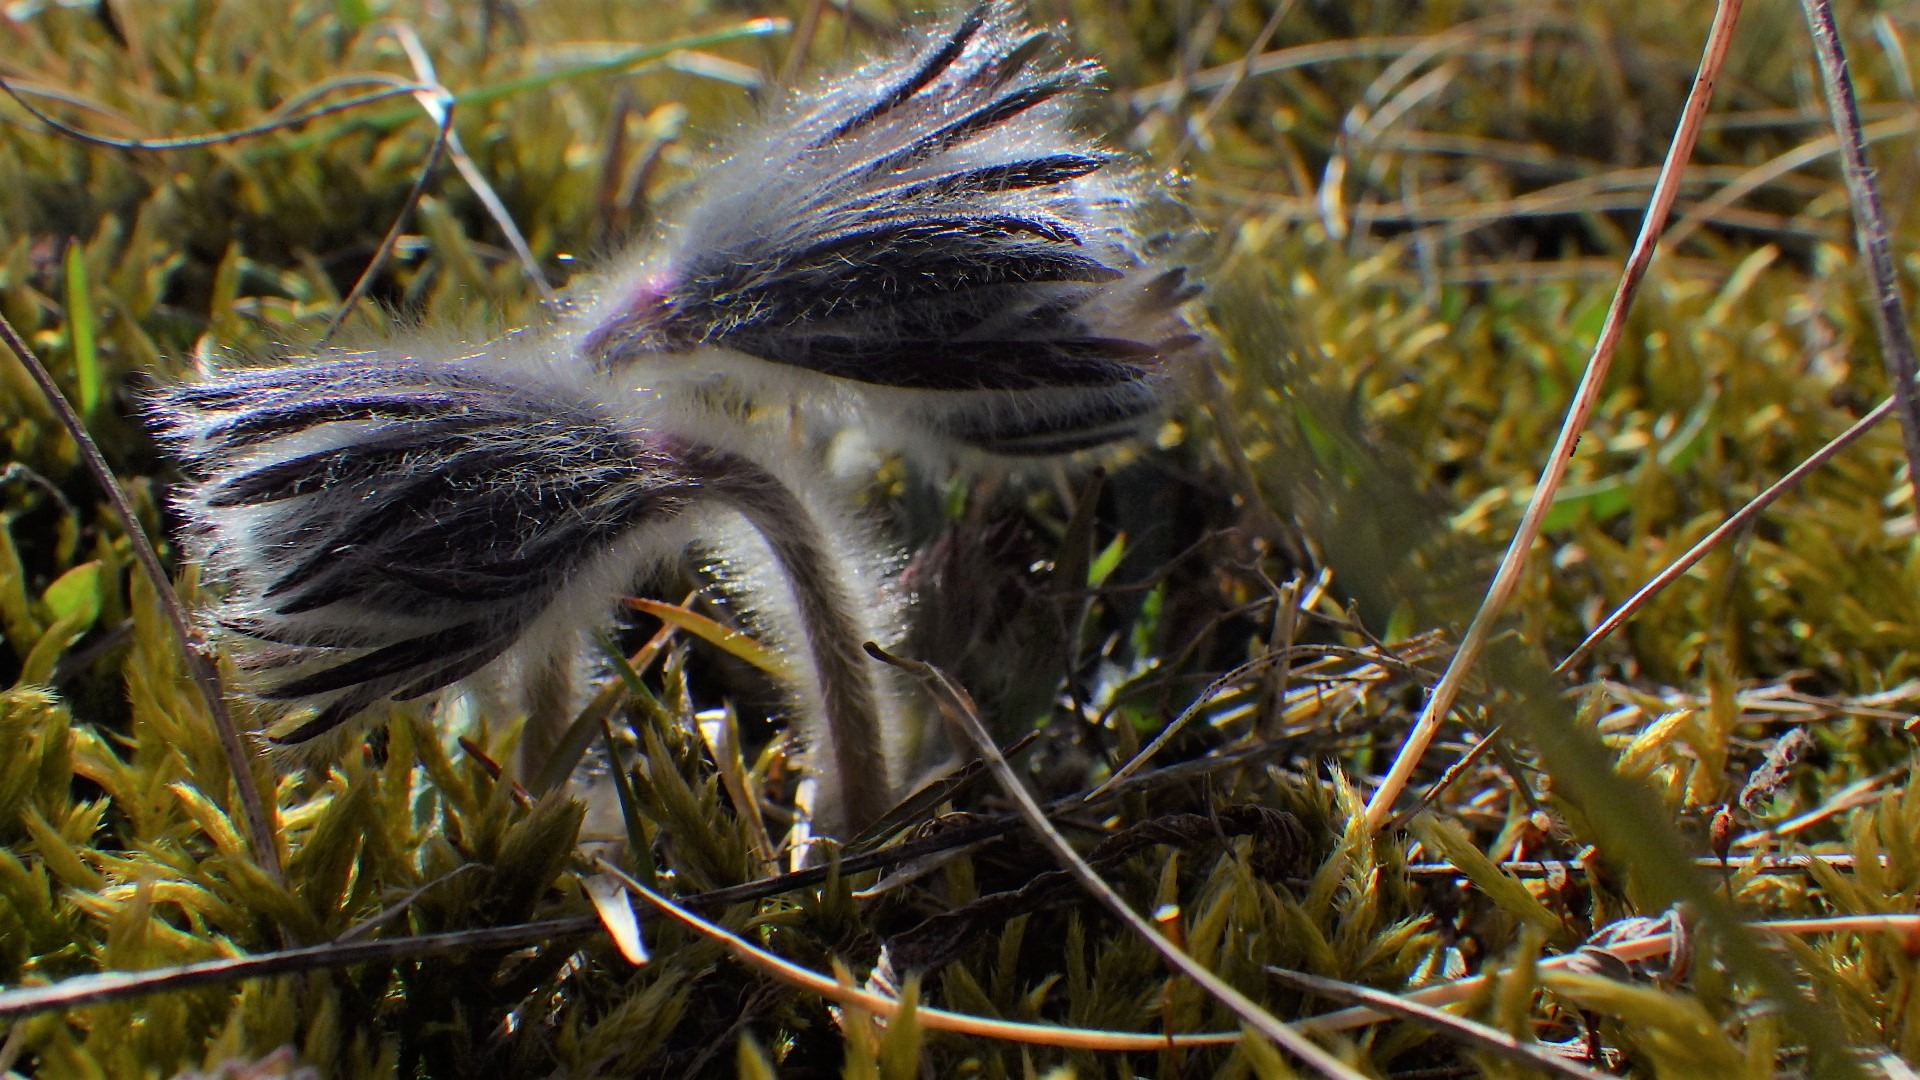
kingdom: Plantae
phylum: Tracheophyta
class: Magnoliopsida
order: Ranunculales
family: Ranunculaceae
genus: Pulsatilla
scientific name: Pulsatilla pratensis
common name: Nikkende kobjælde
